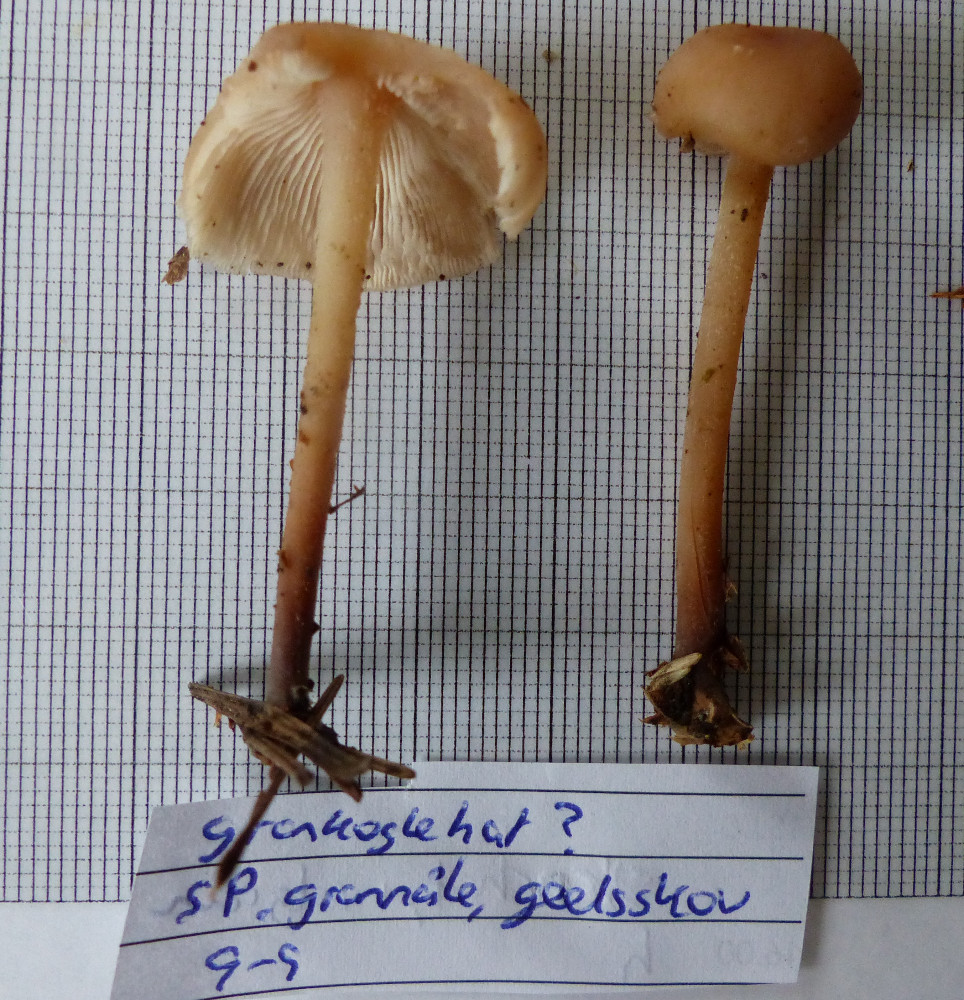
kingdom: Fungi
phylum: Basidiomycota
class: Agaricomycetes
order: Agaricales
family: Omphalotaceae
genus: Collybiopsis
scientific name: Collybiopsis confluens
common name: knippe-fladhat
